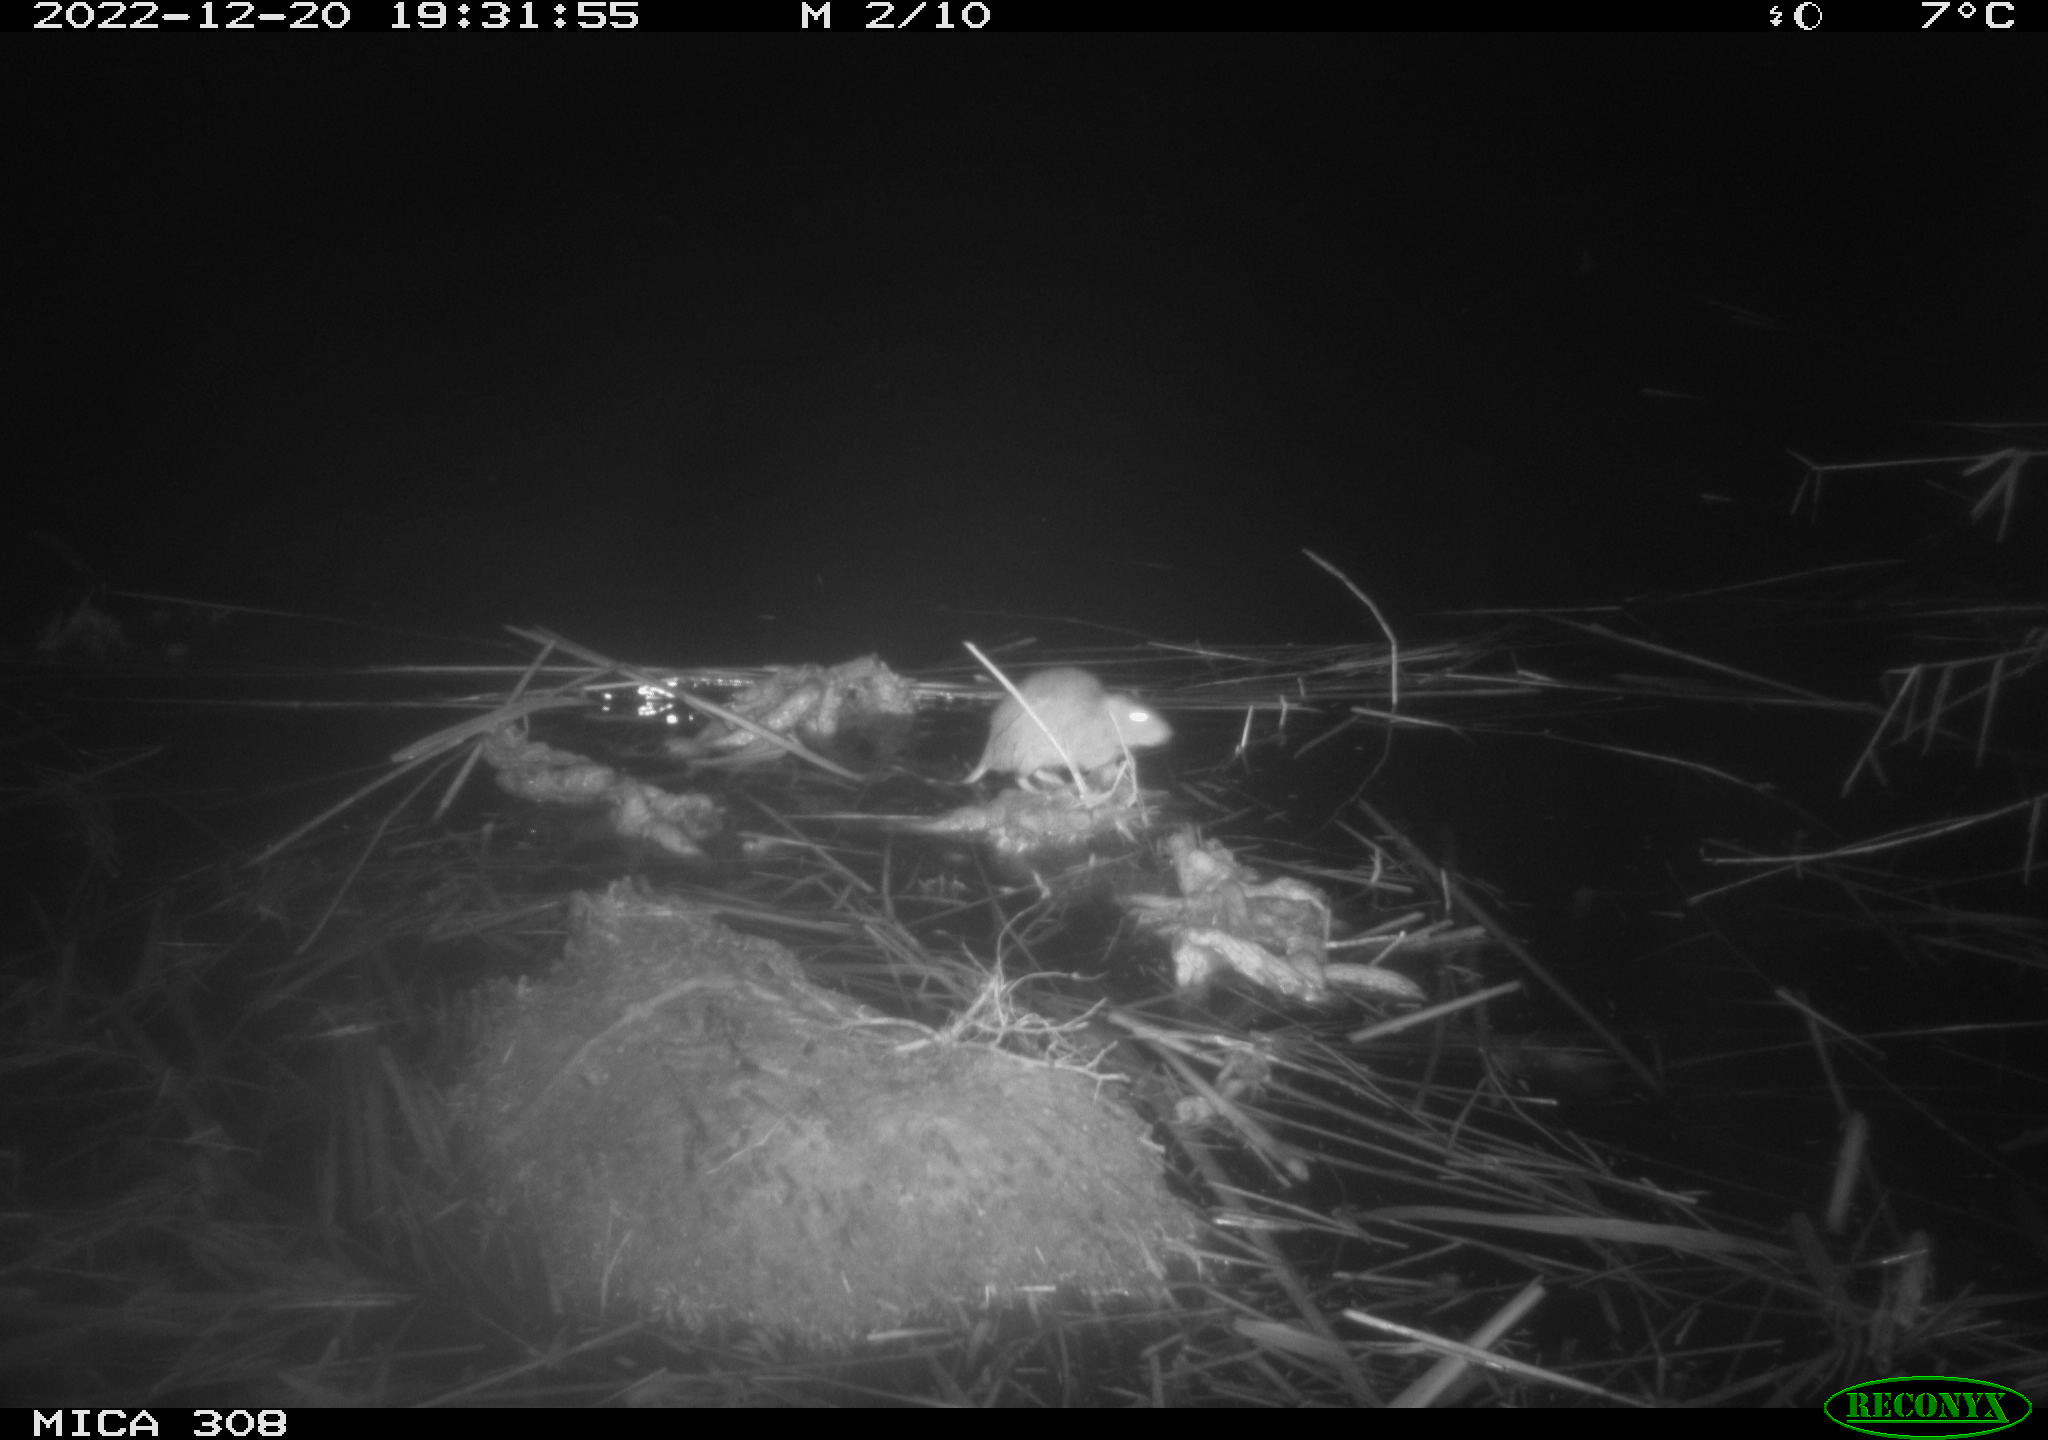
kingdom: Animalia
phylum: Chordata
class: Mammalia
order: Rodentia
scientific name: Rodentia
